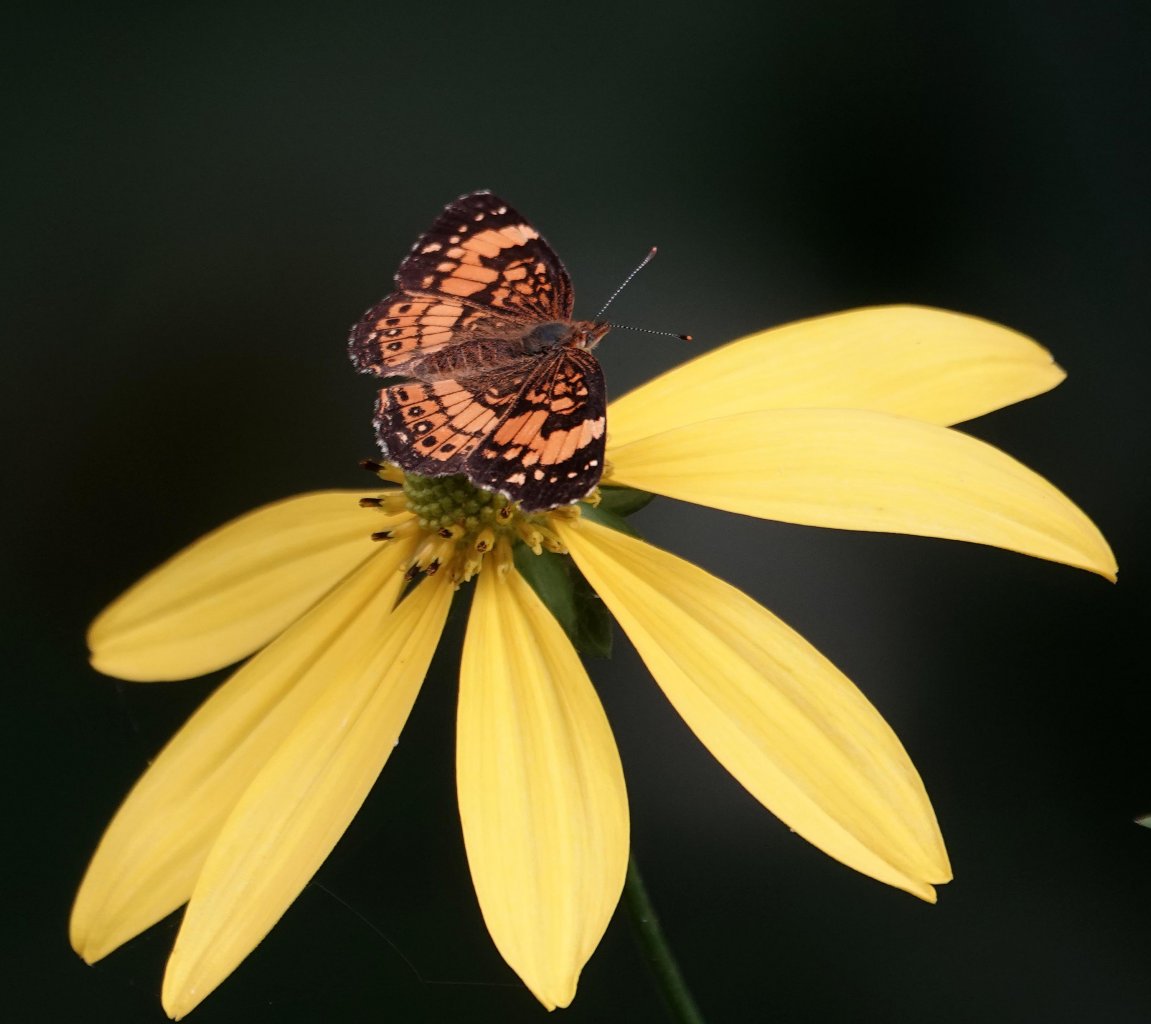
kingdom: Animalia
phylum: Arthropoda
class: Insecta
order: Lepidoptera
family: Nymphalidae
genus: Chlosyne
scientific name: Chlosyne nycteis
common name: Silvery Checkerspot
